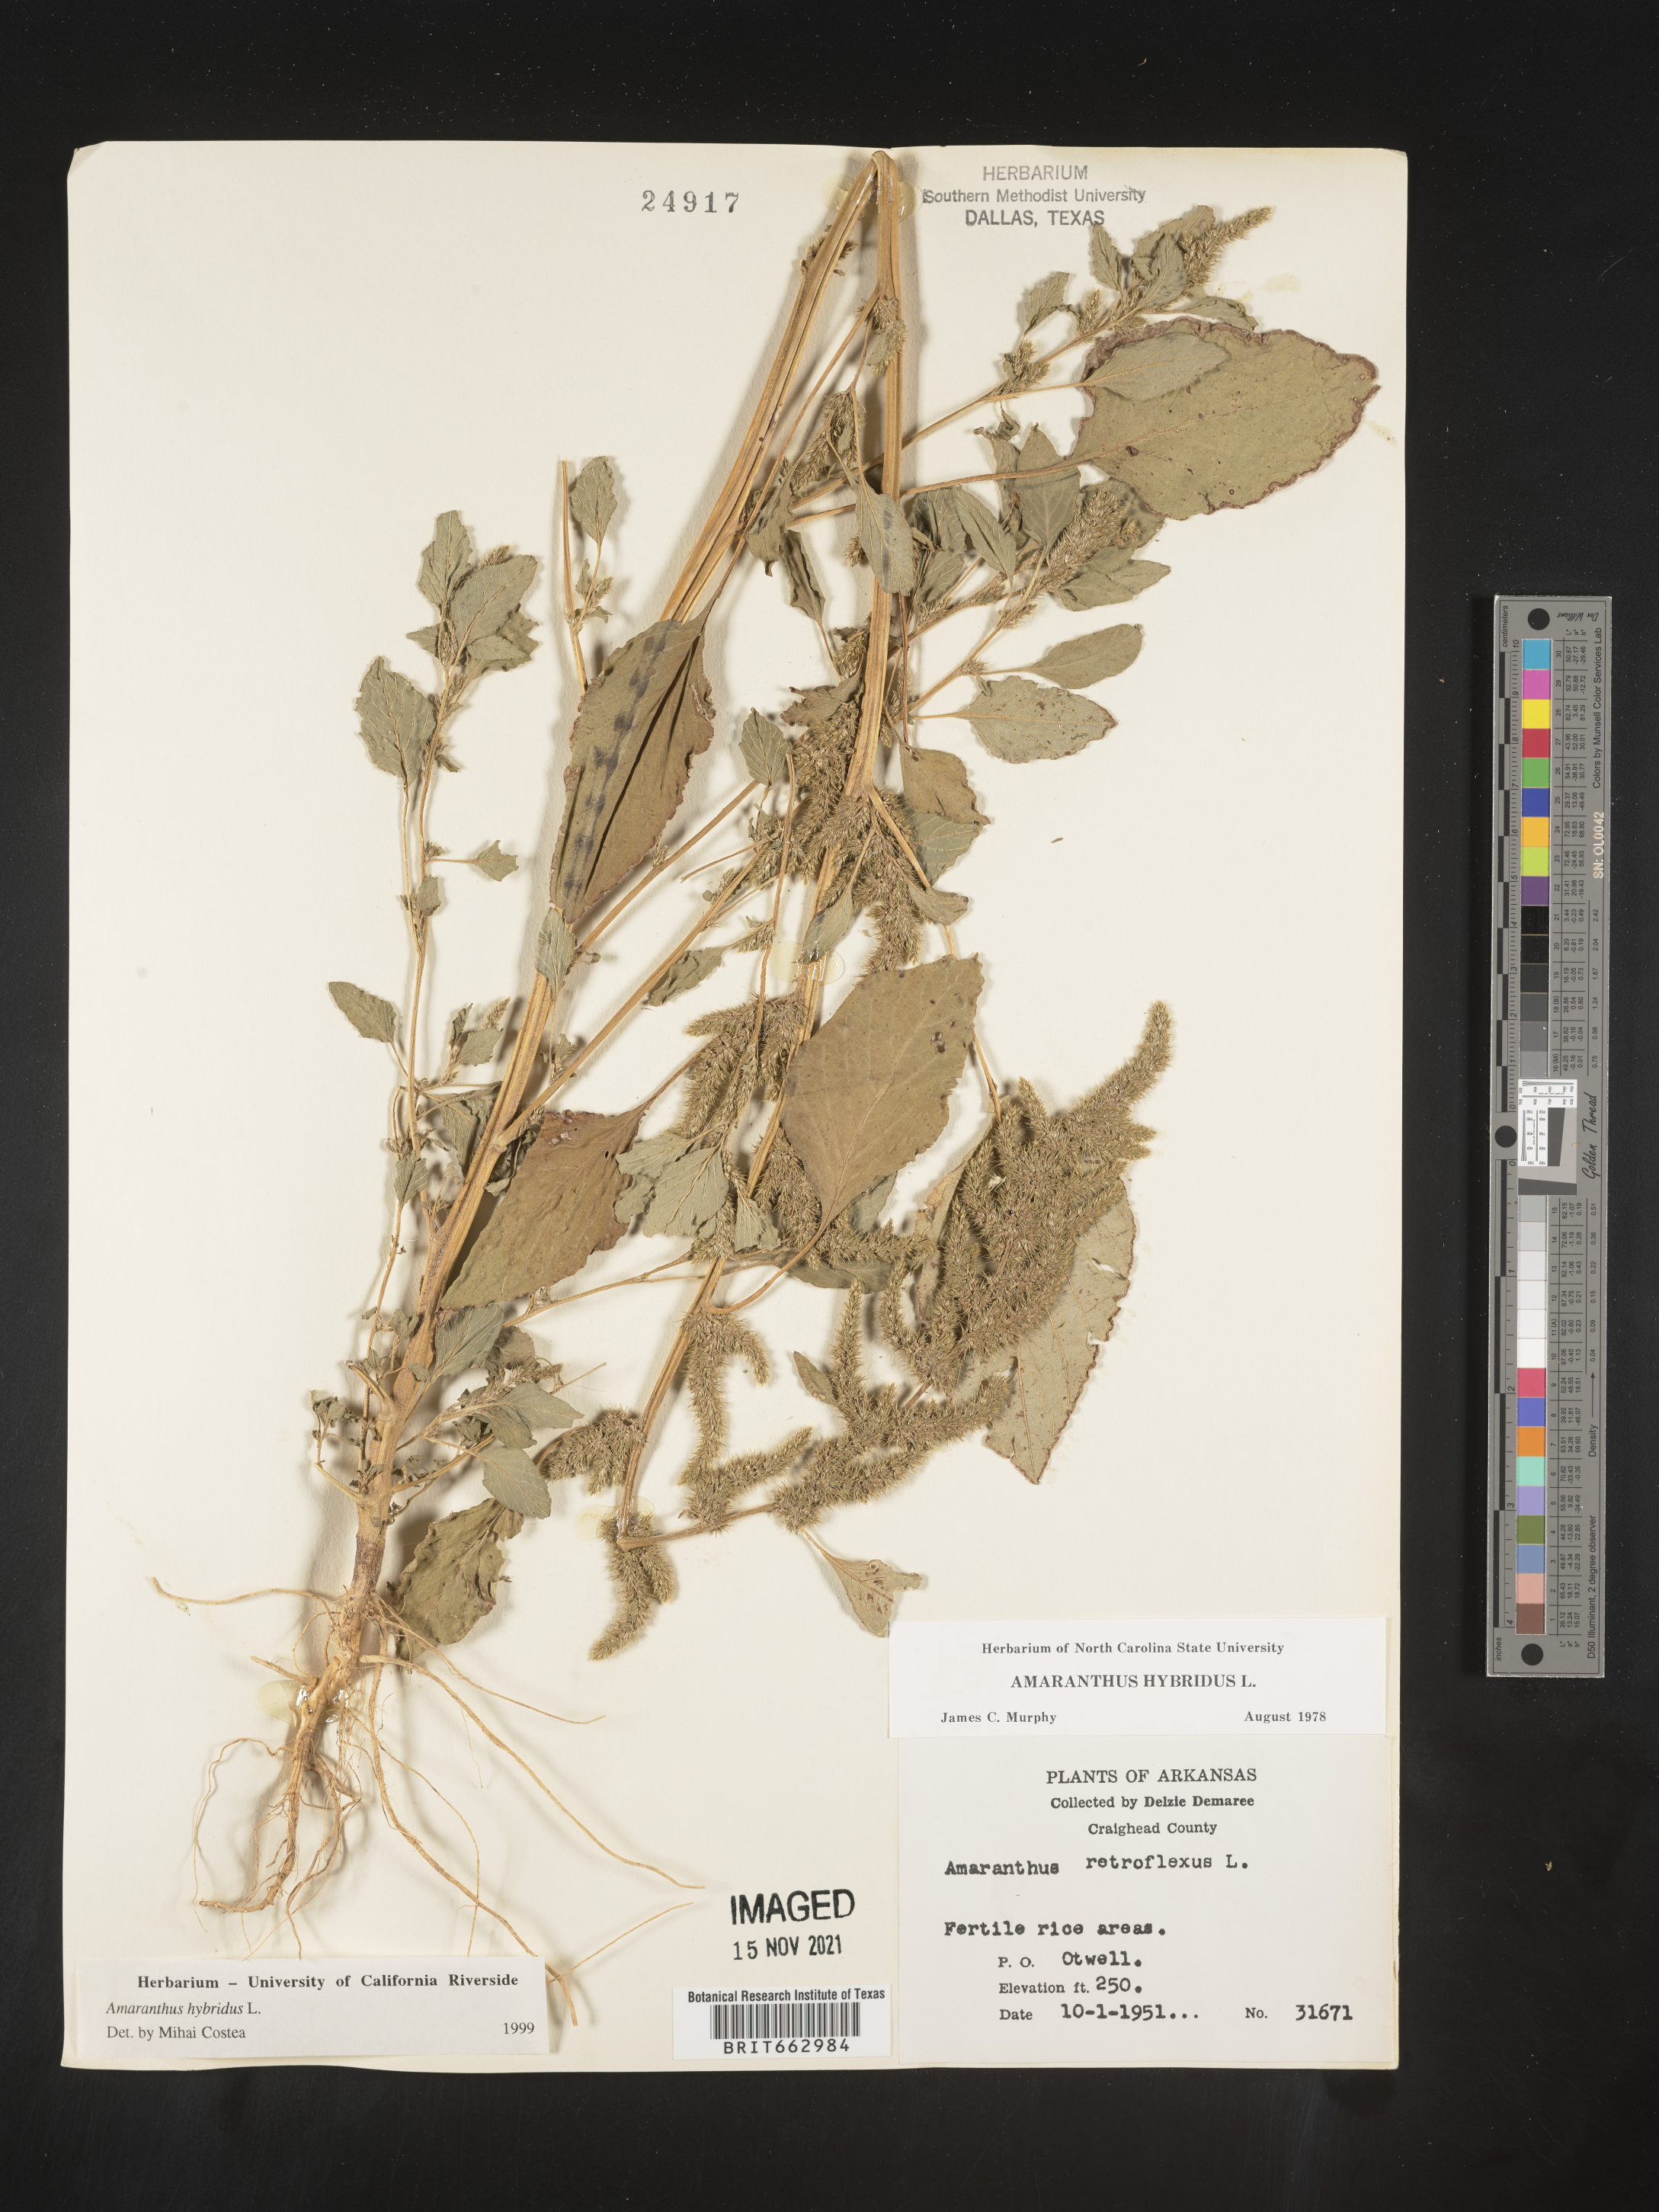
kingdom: Plantae
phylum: Tracheophyta
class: Magnoliopsida
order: Caryophyllales
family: Amaranthaceae
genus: Amaranthus
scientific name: Amaranthus hybridus
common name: Green amaranth
